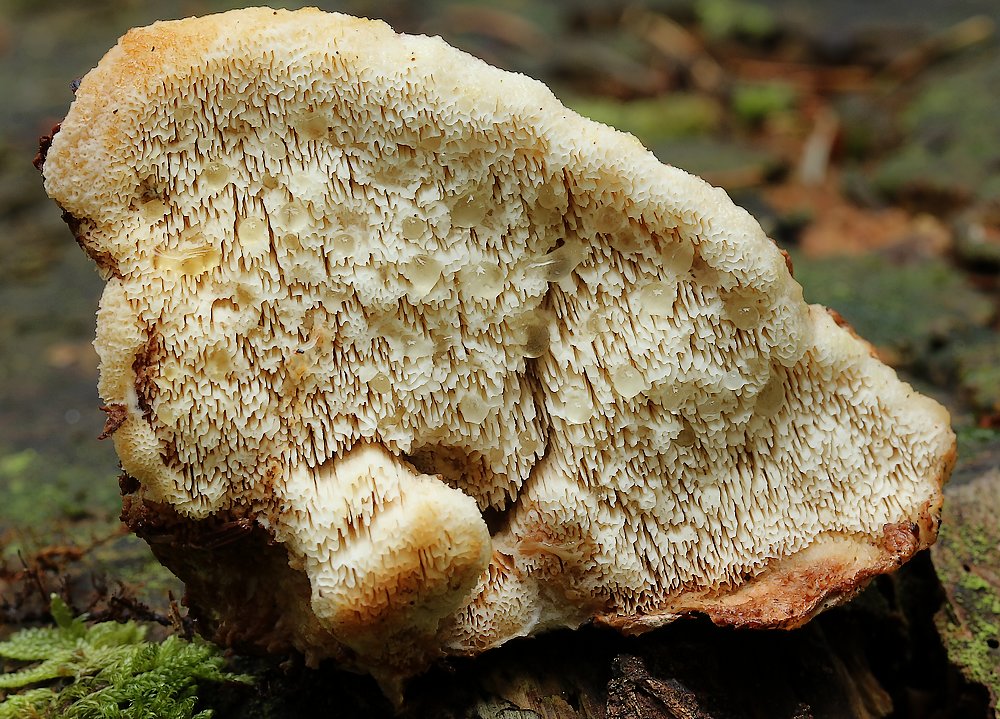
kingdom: Fungi
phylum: Basidiomycota
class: Agaricomycetes
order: Polyporales
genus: Fuscopostia
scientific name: Fuscopostia fragilis
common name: brunende kødporesvamp
